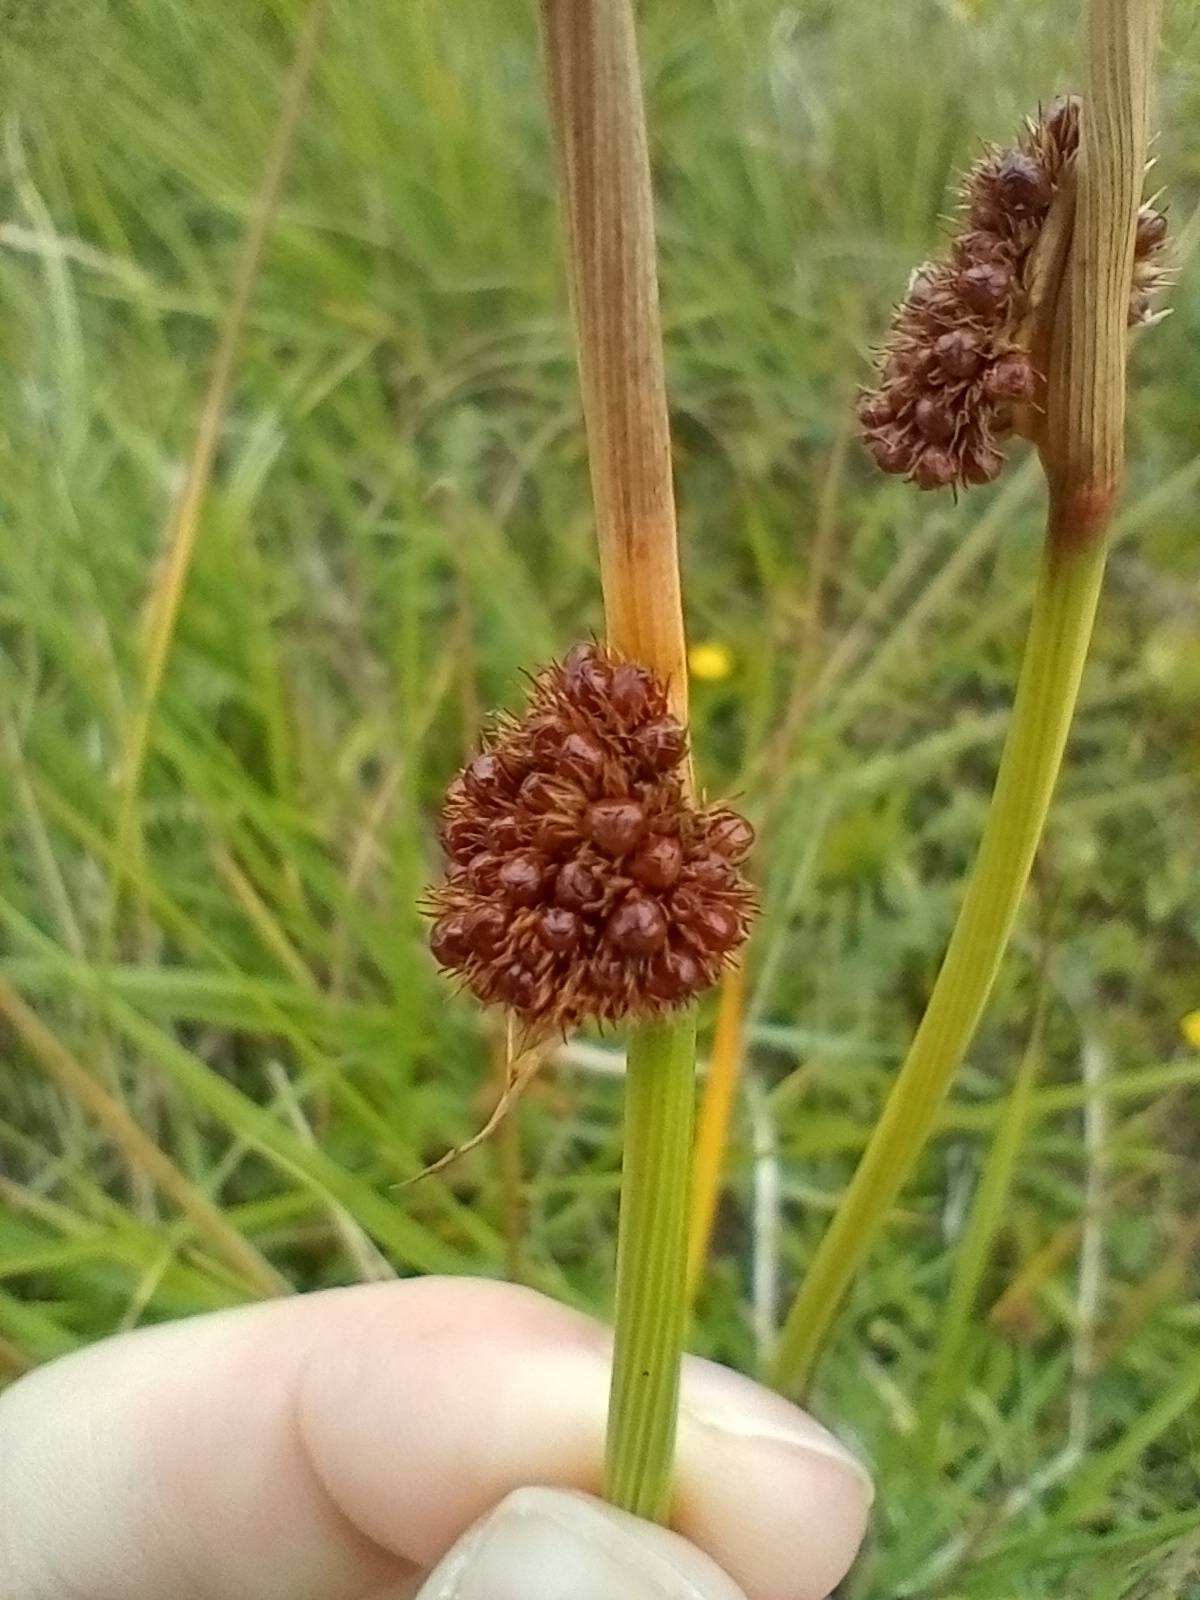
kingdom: Plantae
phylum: Tracheophyta
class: Liliopsida
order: Poales
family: Juncaceae
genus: Juncus
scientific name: Juncus conglomeratus
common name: Knop-siv
